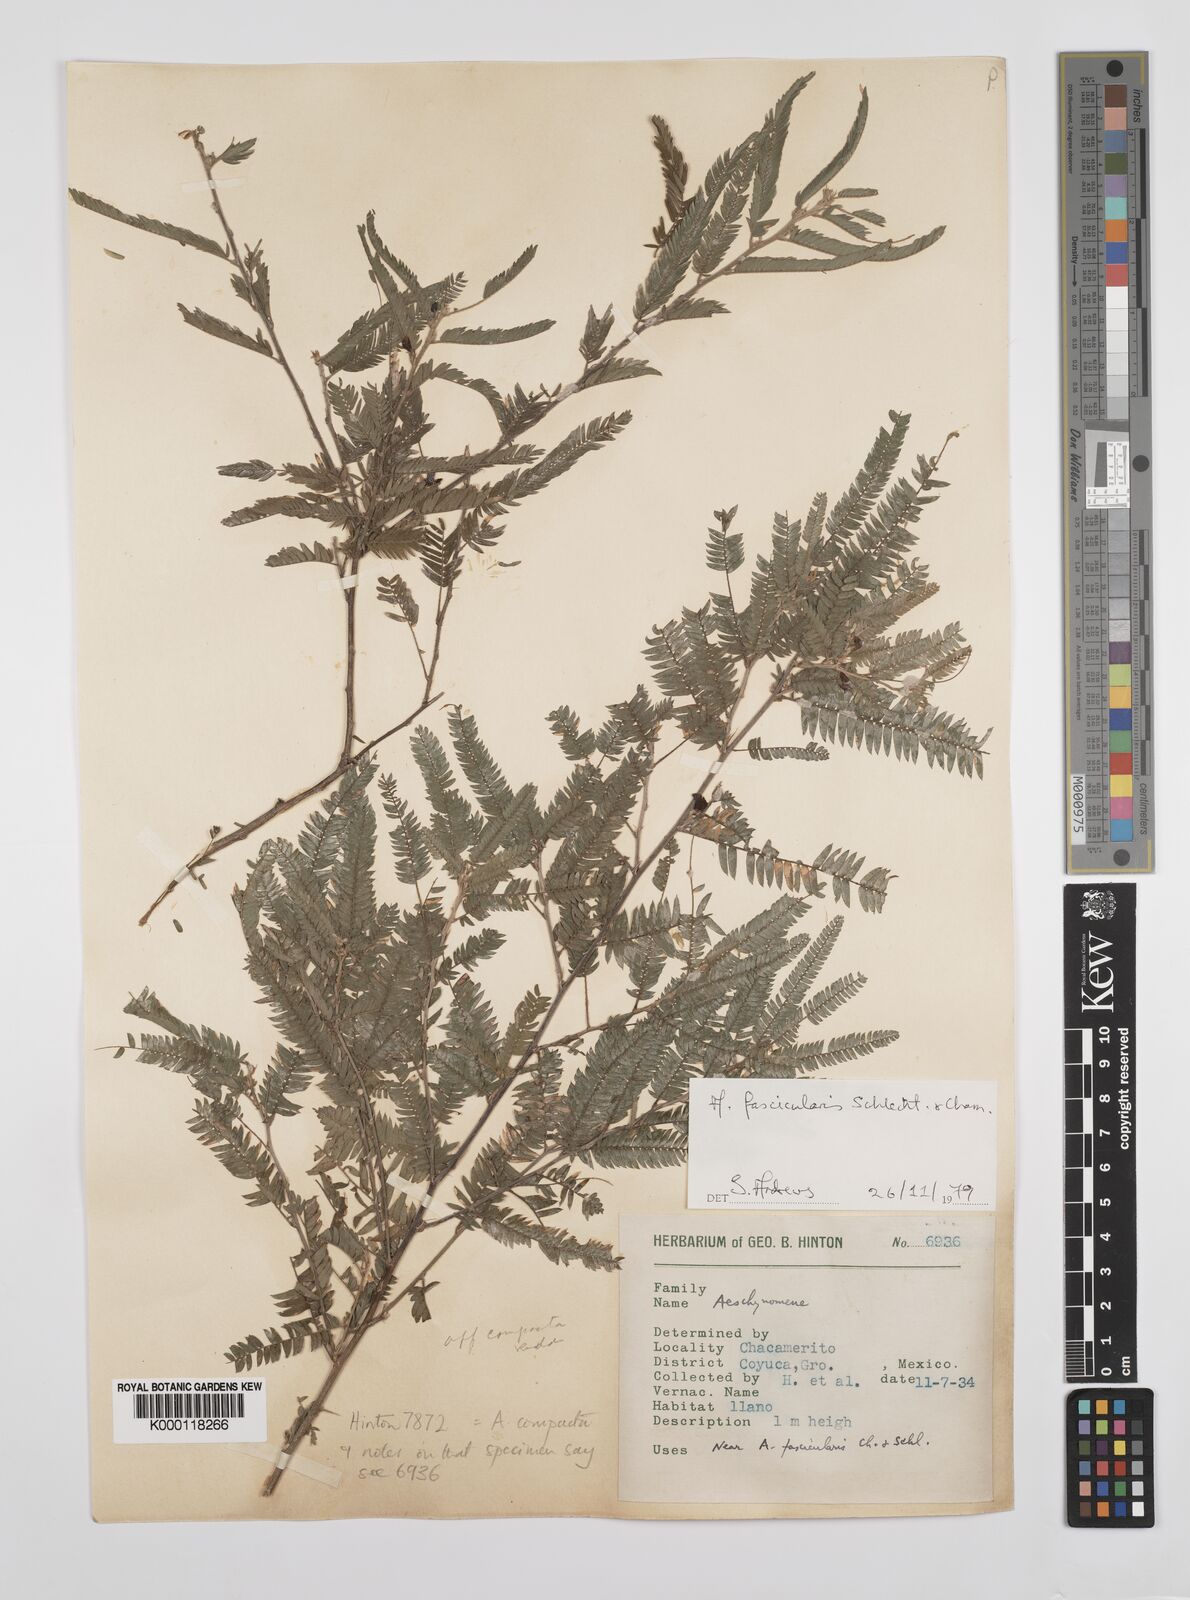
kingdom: Plantae
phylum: Tracheophyta
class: Magnoliopsida
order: Fabales
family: Fabaceae
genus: Ctenodon
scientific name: Ctenodon compactus
